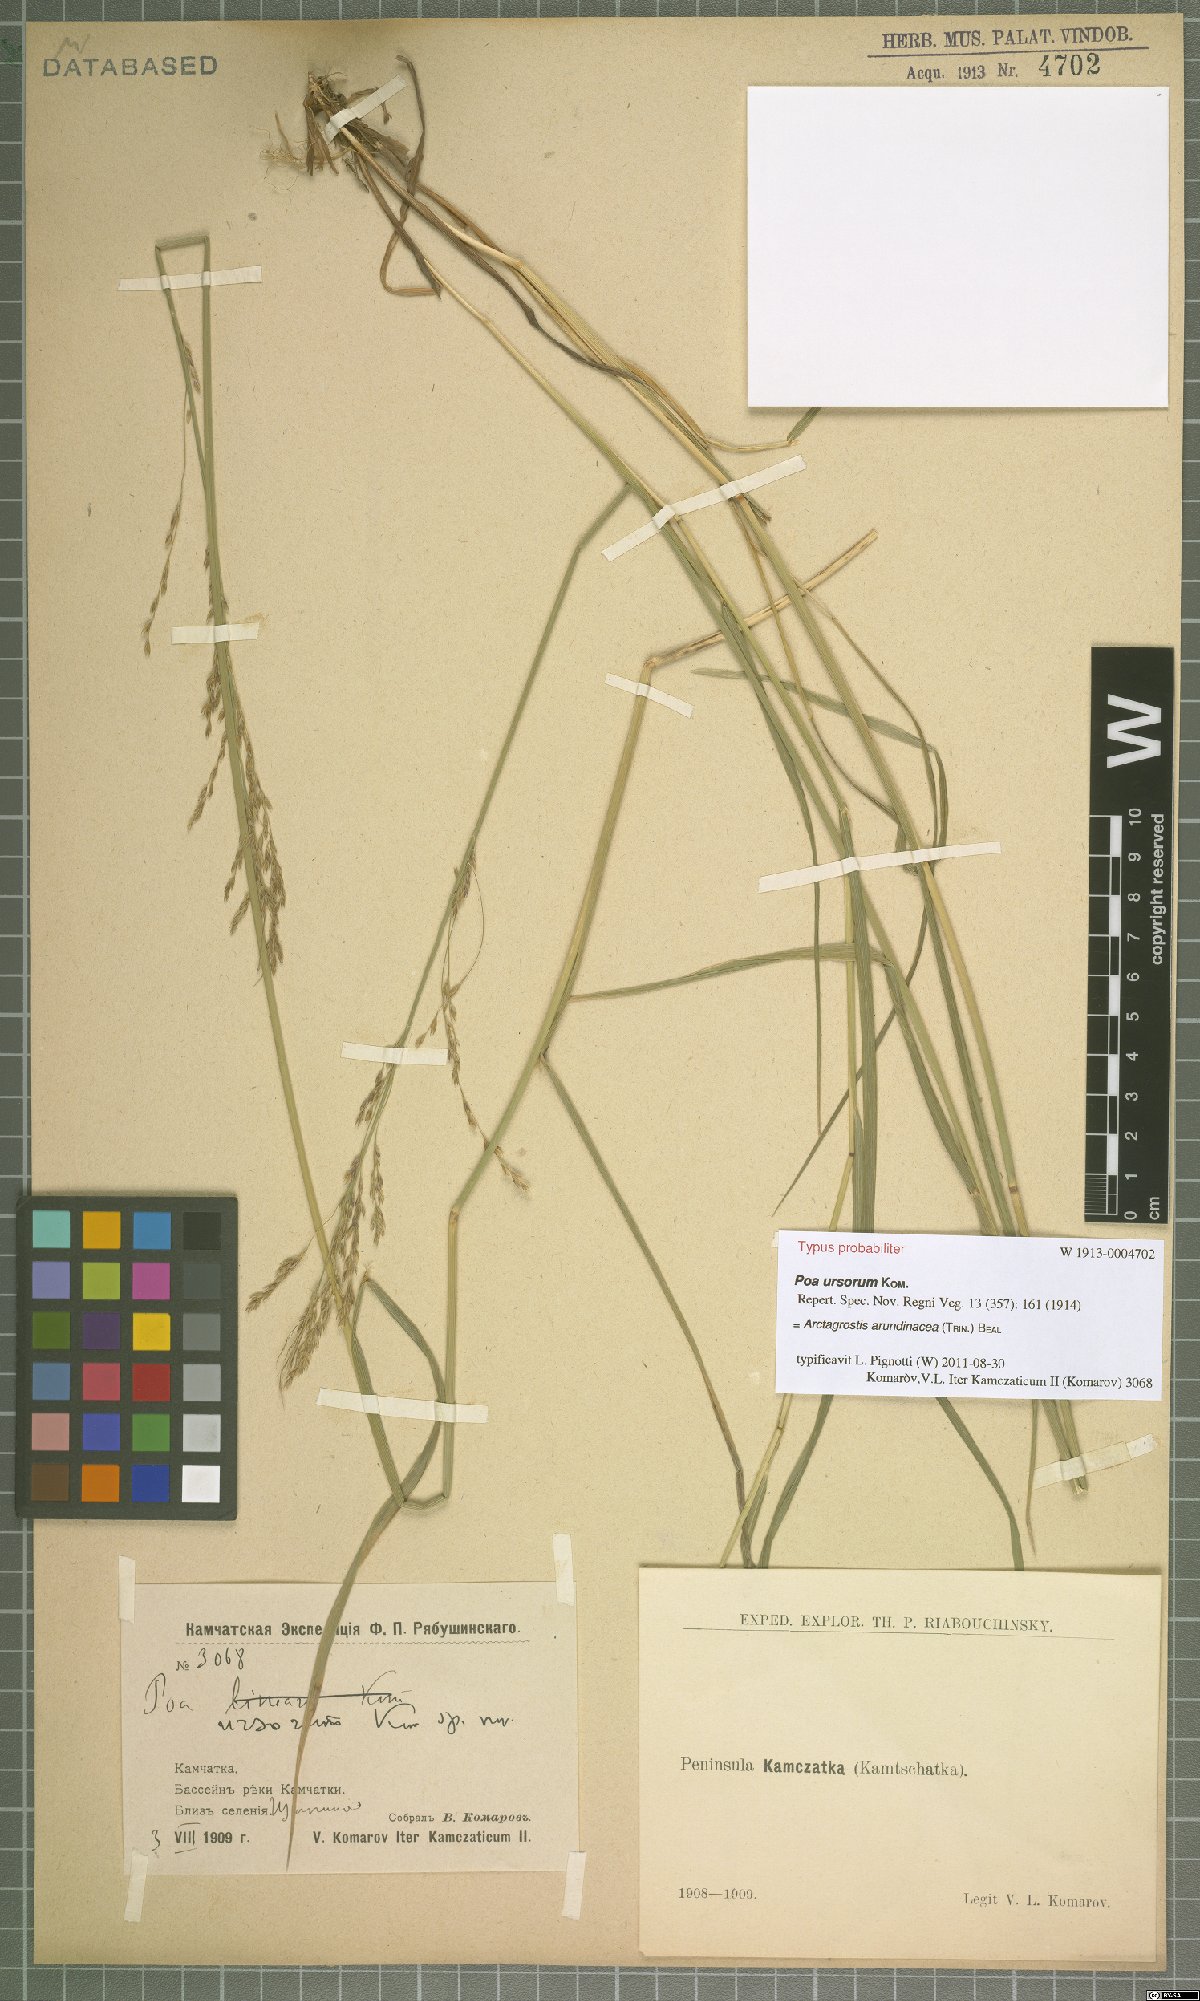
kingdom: Plantae
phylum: Tracheophyta
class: Liliopsida
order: Poales
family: Poaceae
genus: Arctagrostis
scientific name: Arctagrostis arundinacea
